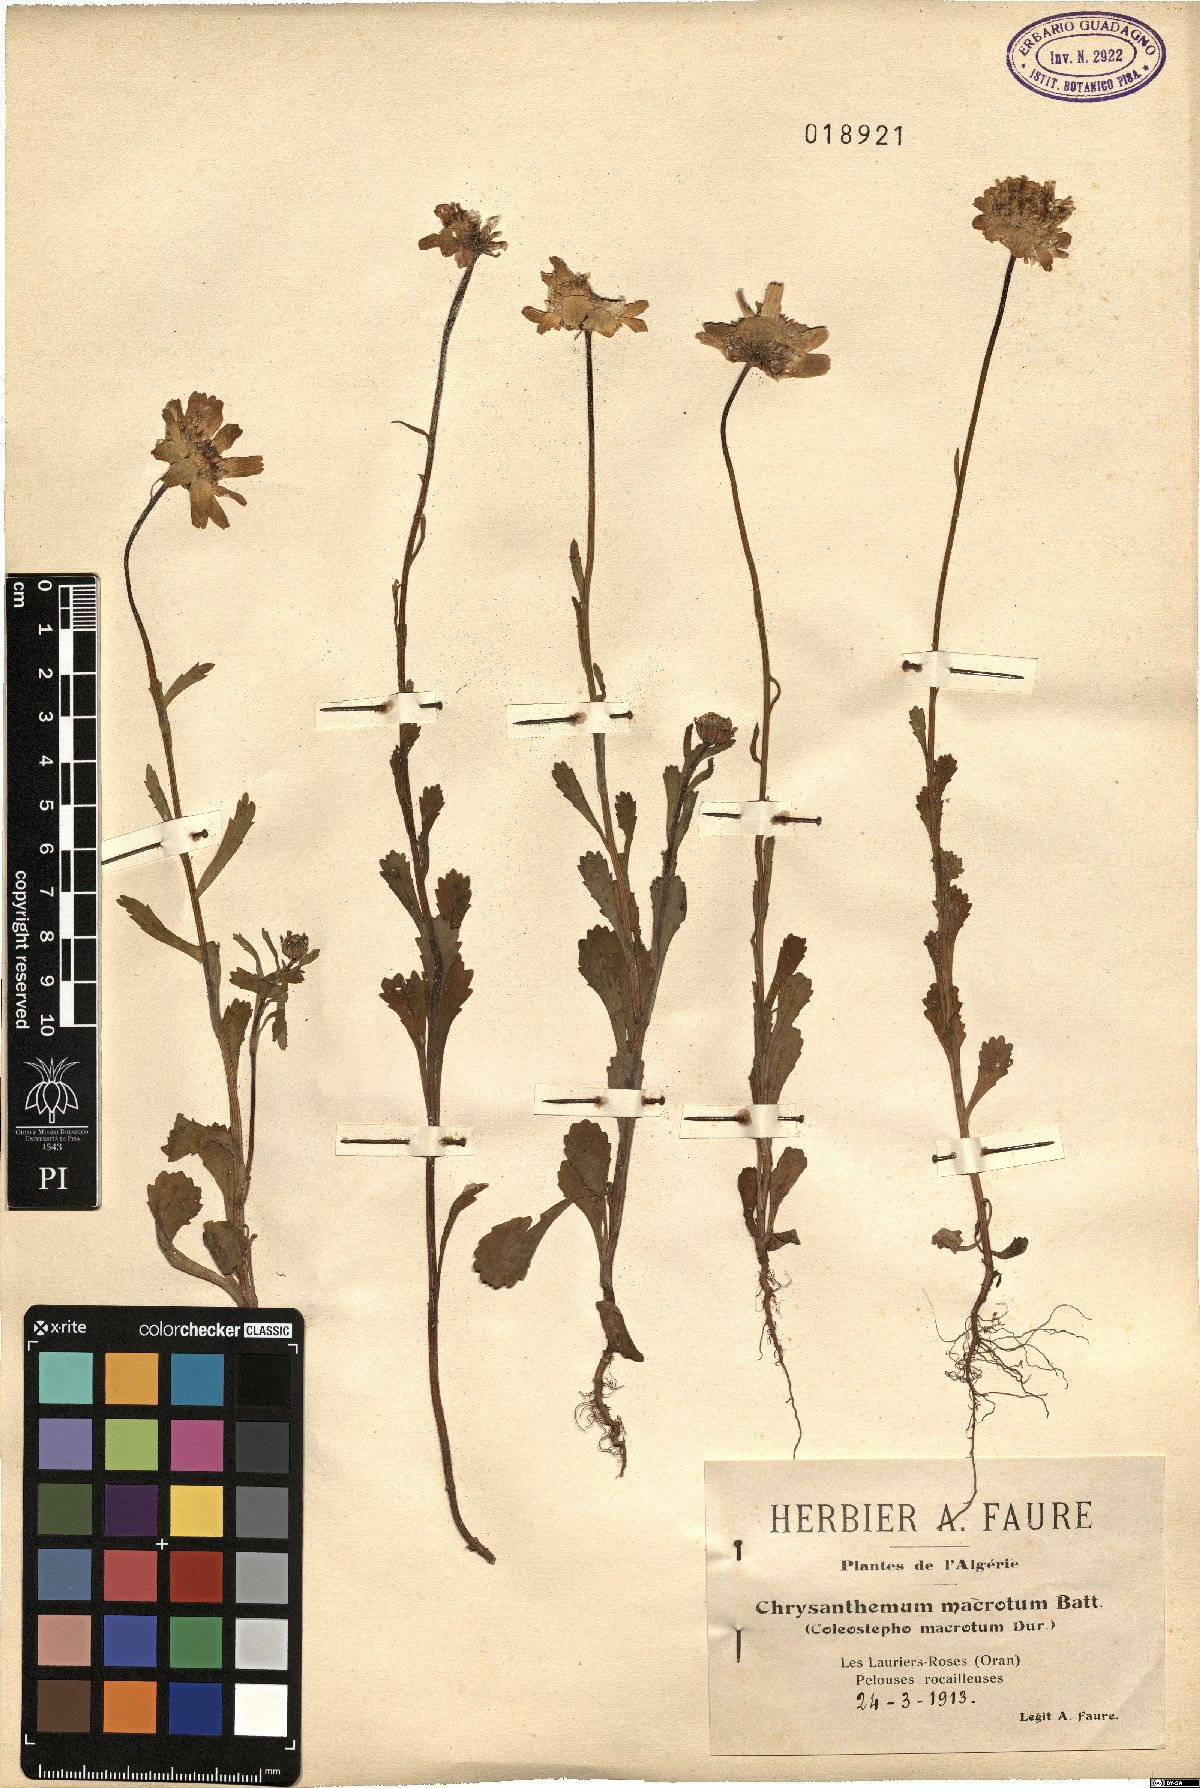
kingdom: Plantae
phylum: Tracheophyta
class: Magnoliopsida
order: Asterales
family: Asteraceae
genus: Glossopappus
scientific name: Glossopappus macrotus
